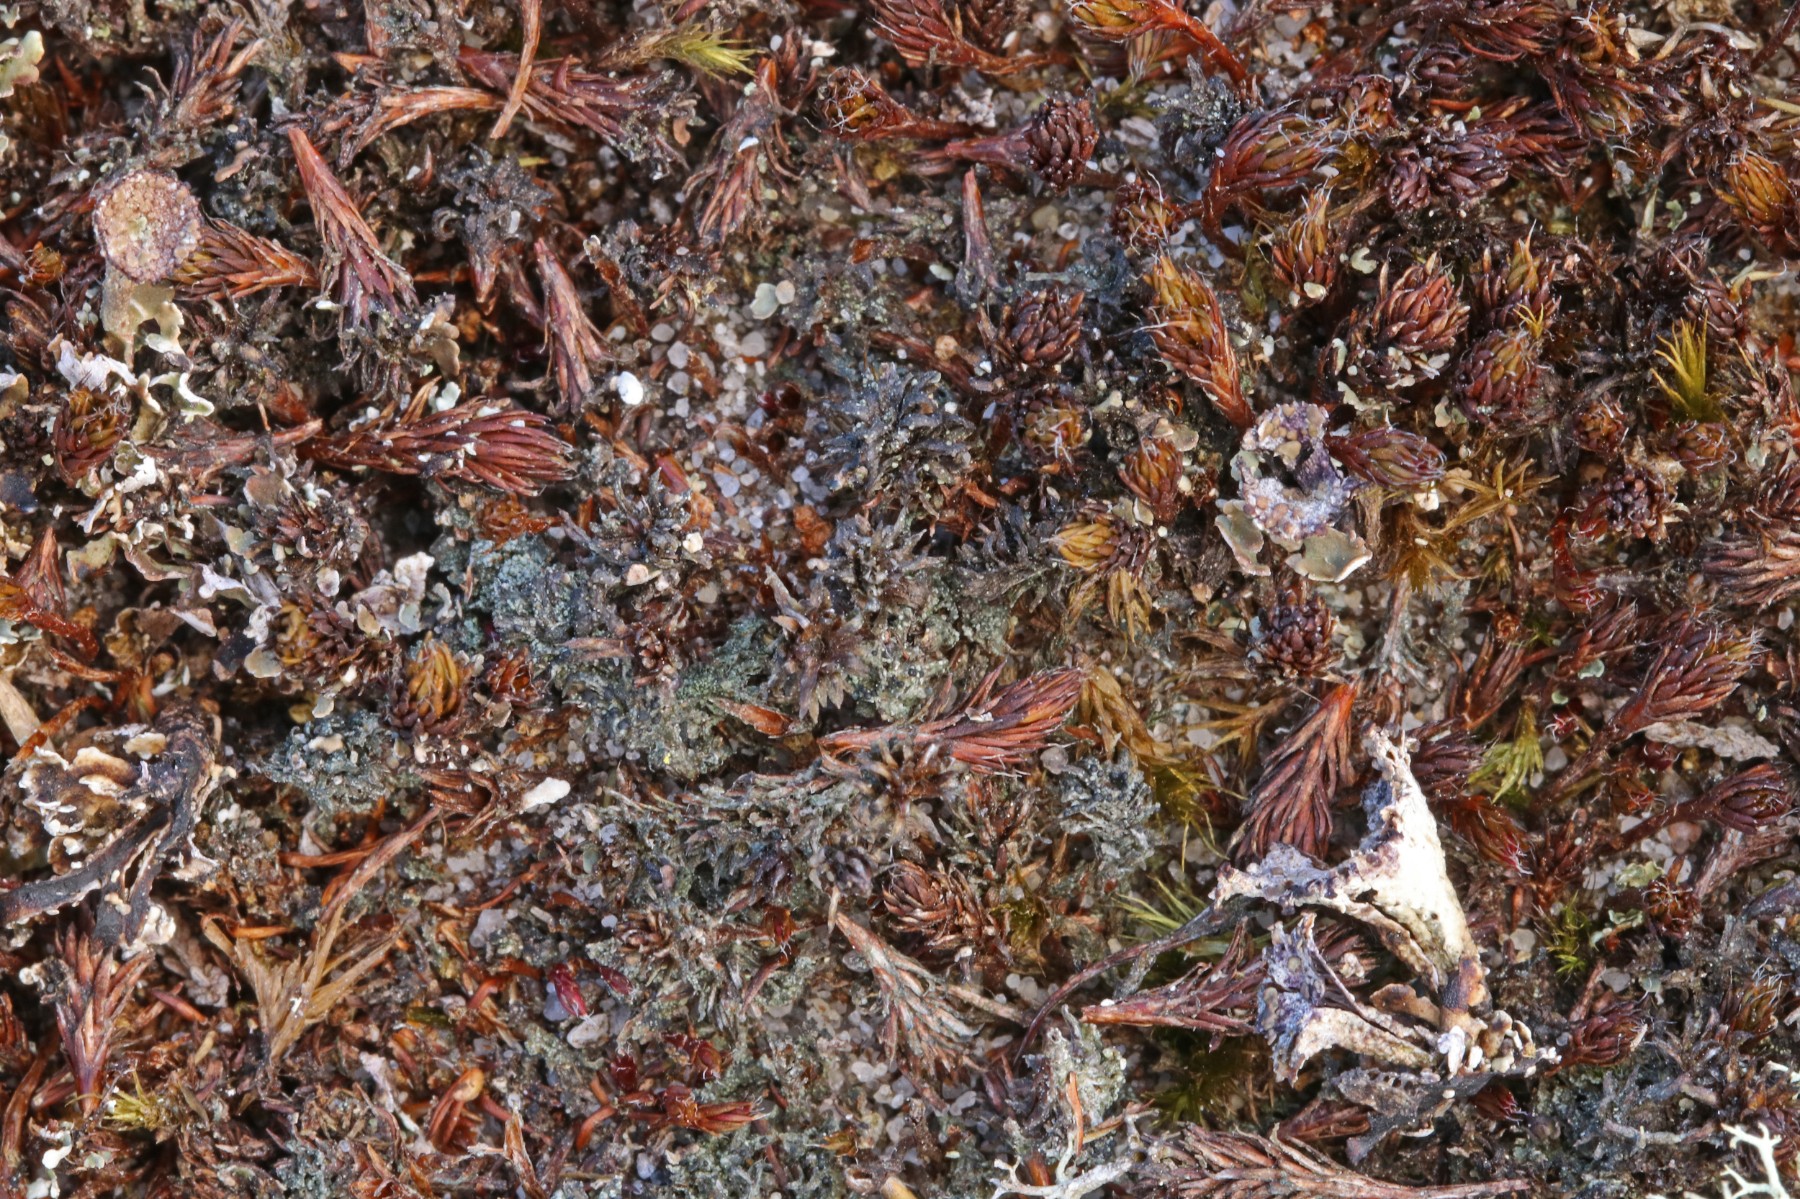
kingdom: Fungi
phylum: Ascomycota
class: Lecanoromycetes
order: Lecanorales
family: Byssolomataceae
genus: Micarea
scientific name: Micarea lignaria
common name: tørve-knaplav
